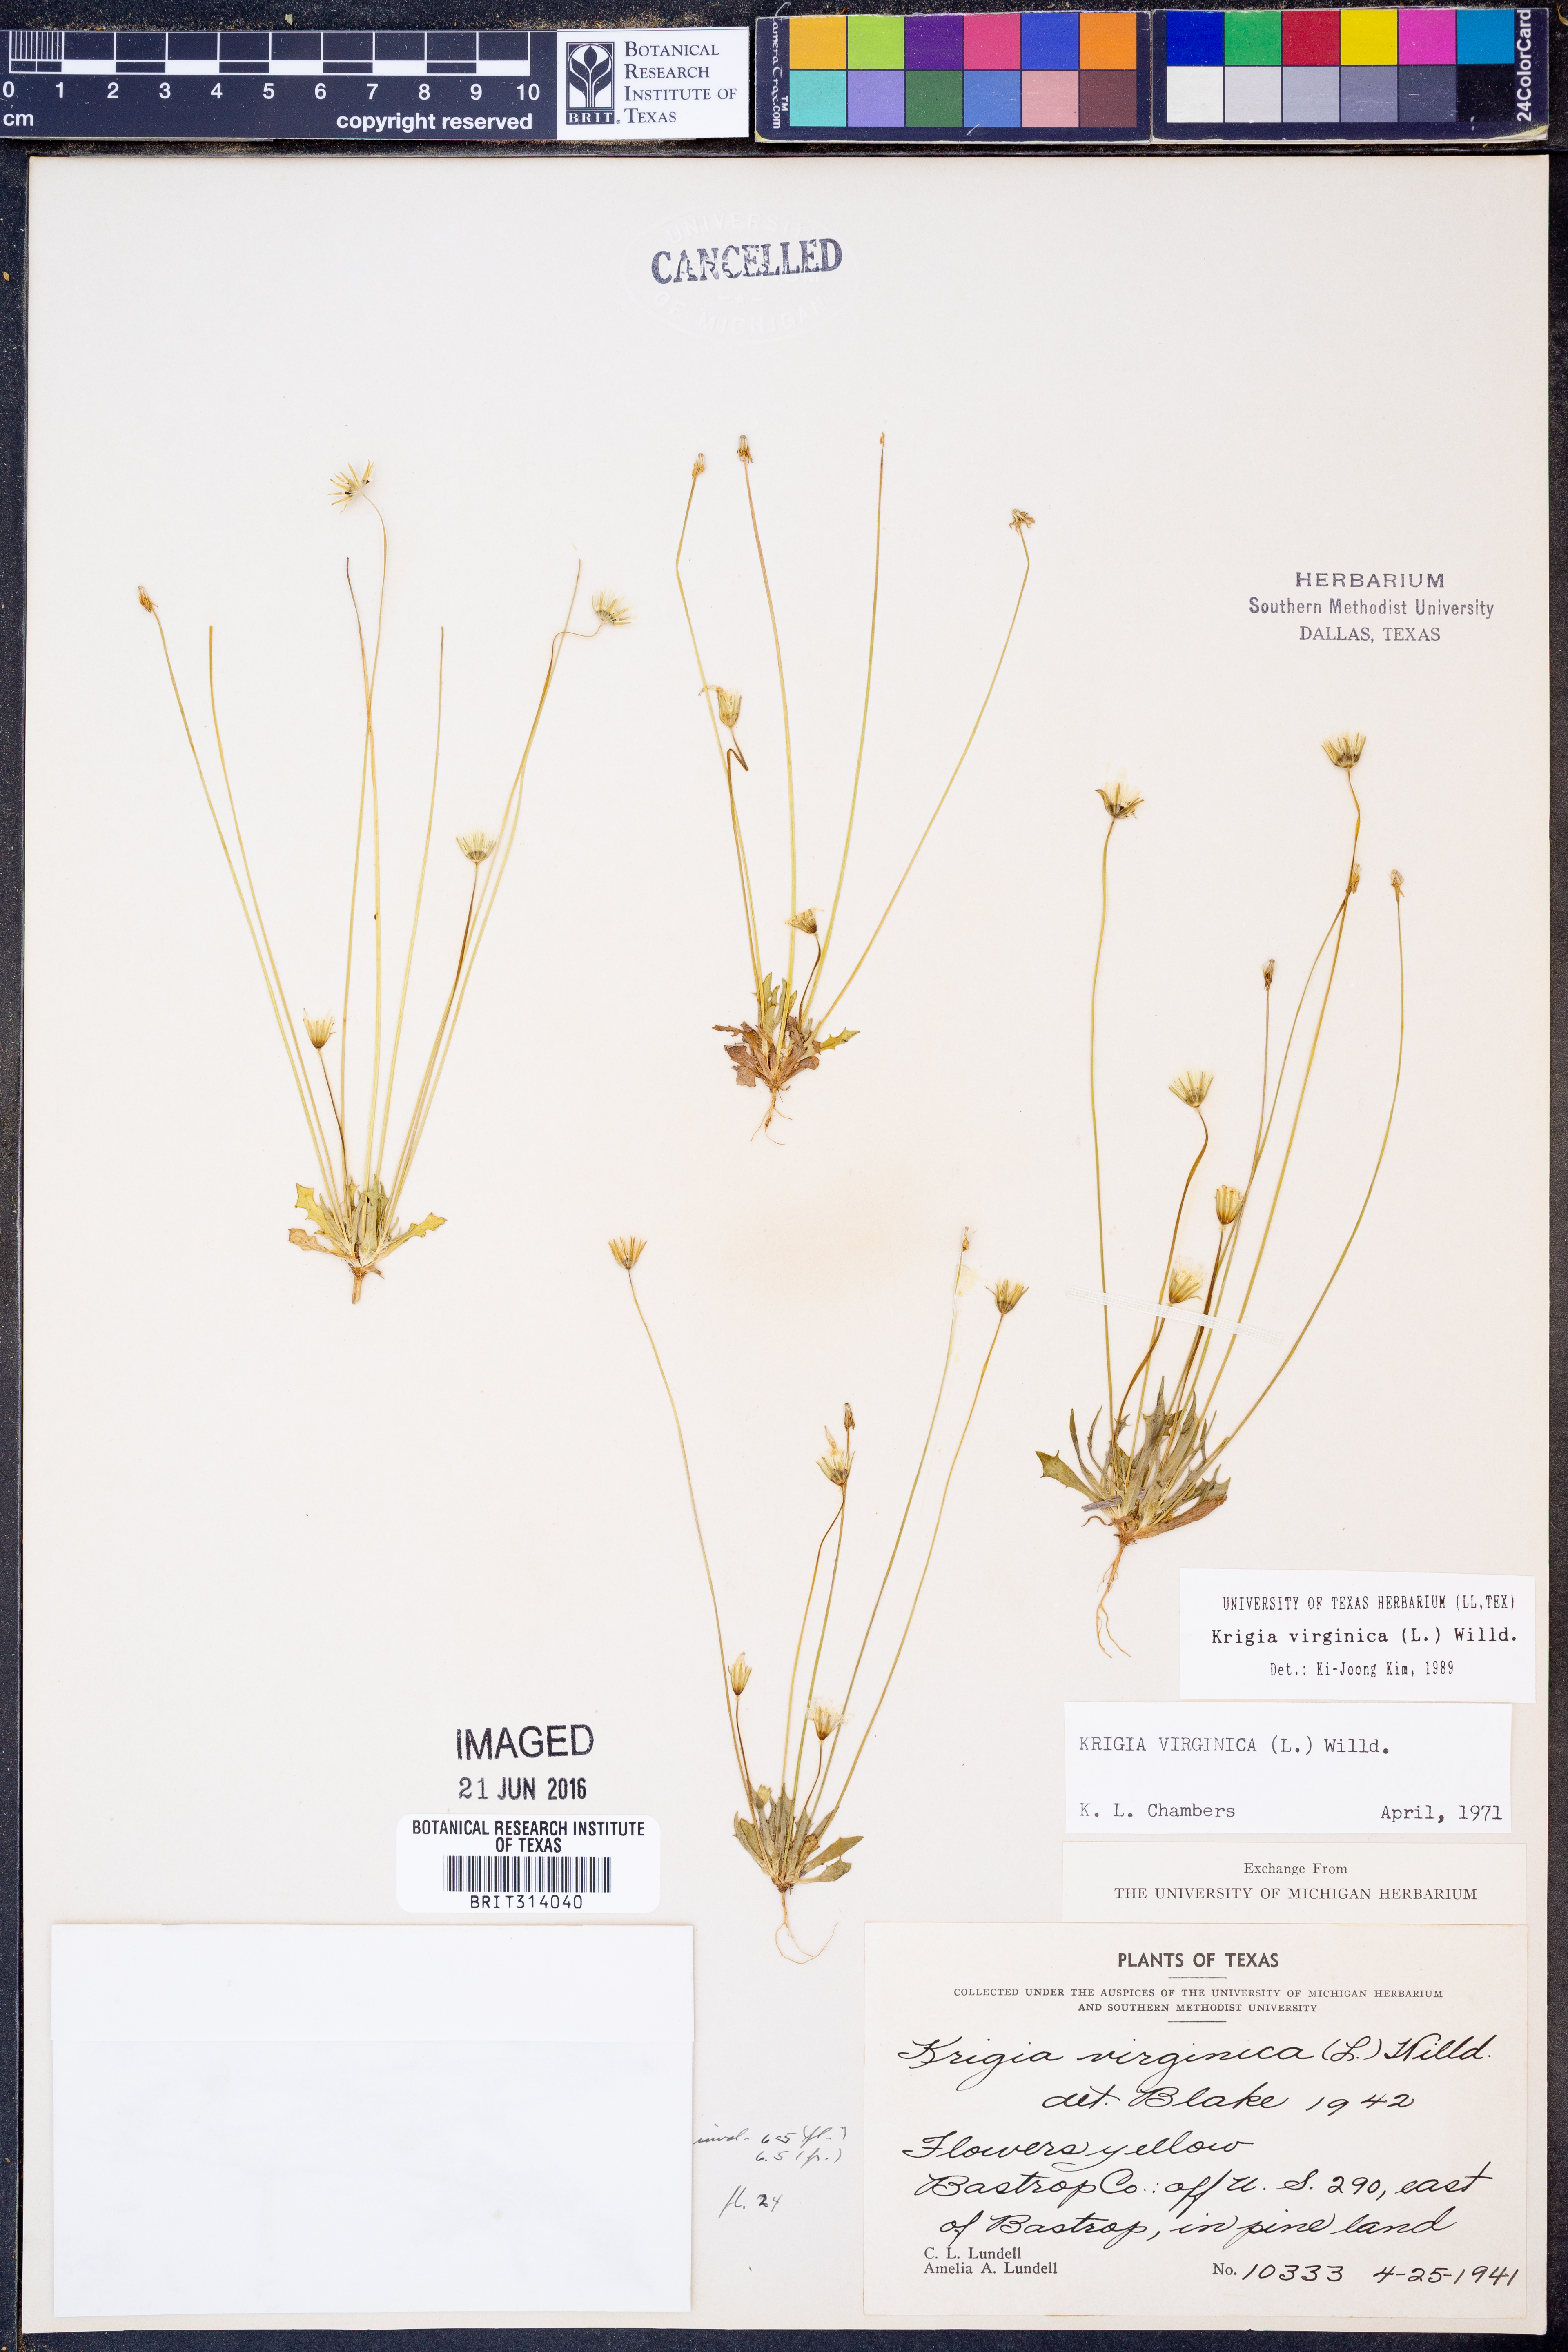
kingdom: Plantae
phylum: Tracheophyta
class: Magnoliopsida
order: Asterales
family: Asteraceae
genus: Krigia
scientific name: Krigia virginica
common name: Virginia dwarf-dandelion
